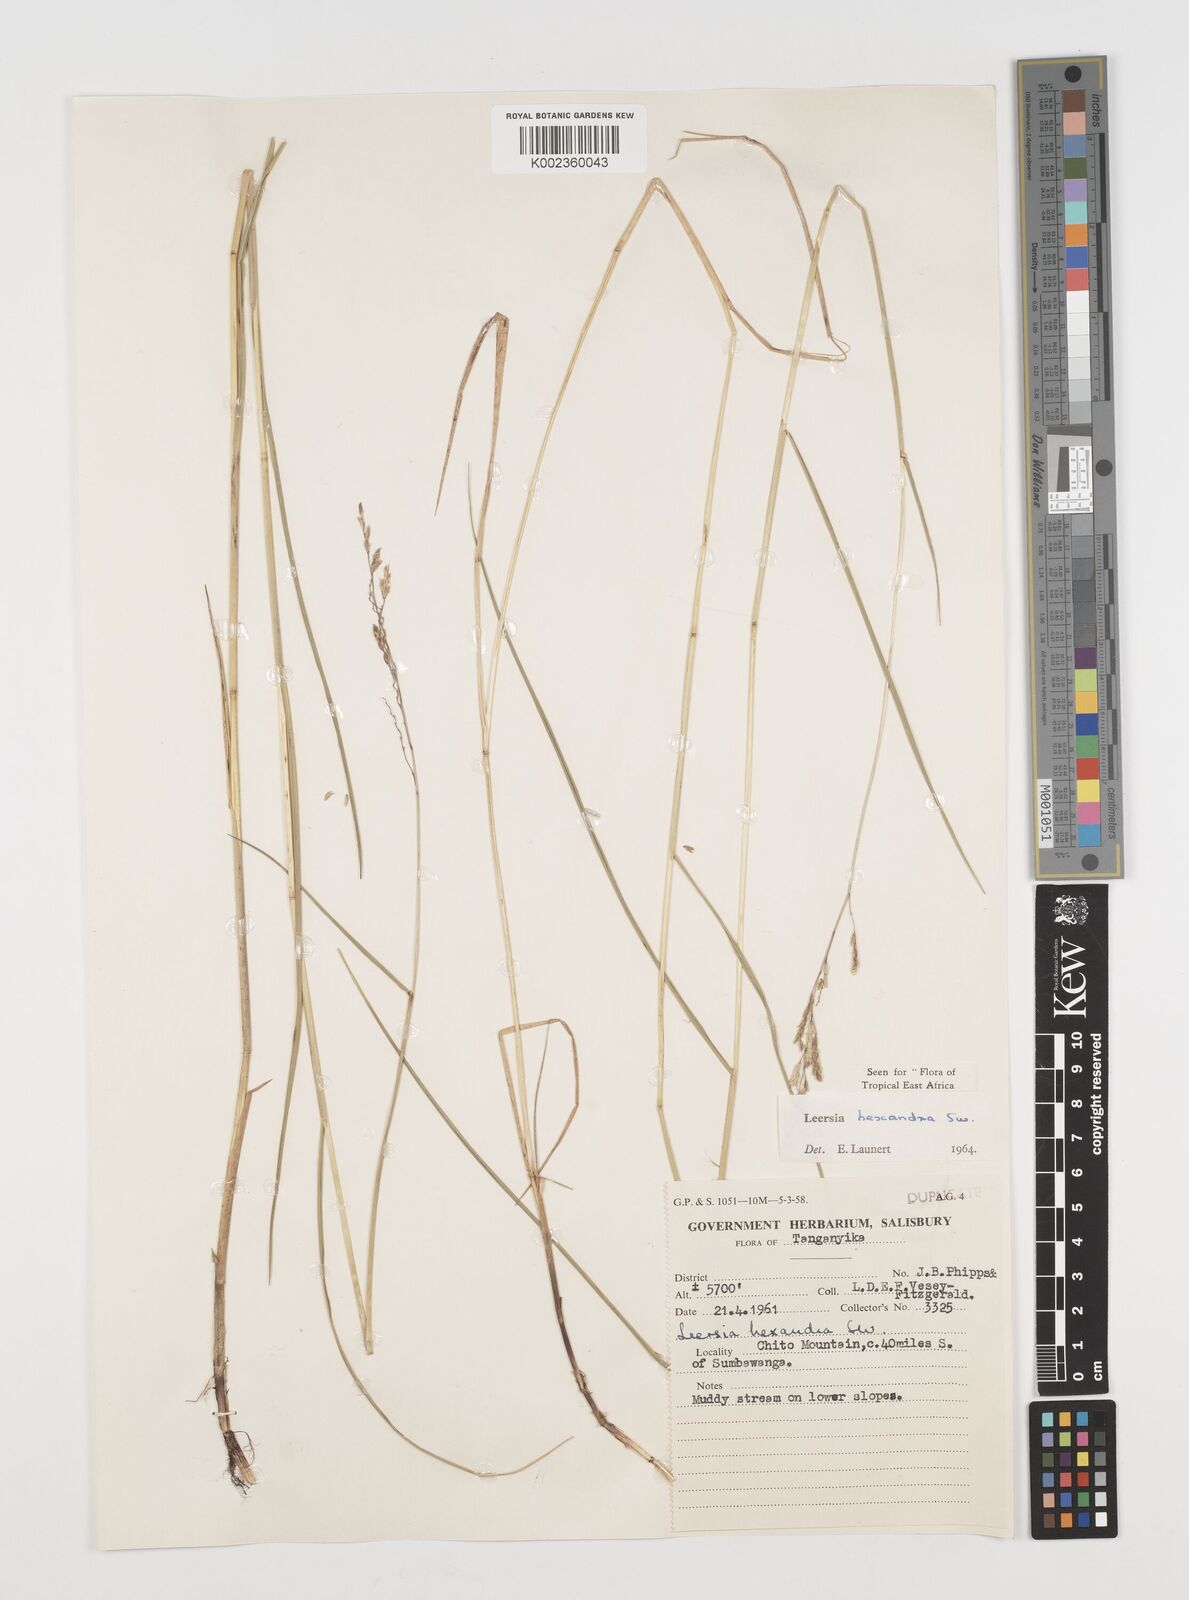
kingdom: Plantae
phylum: Tracheophyta
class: Liliopsida
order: Poales
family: Poaceae
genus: Leersia
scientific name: Leersia hexandra
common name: Southern cut grass
